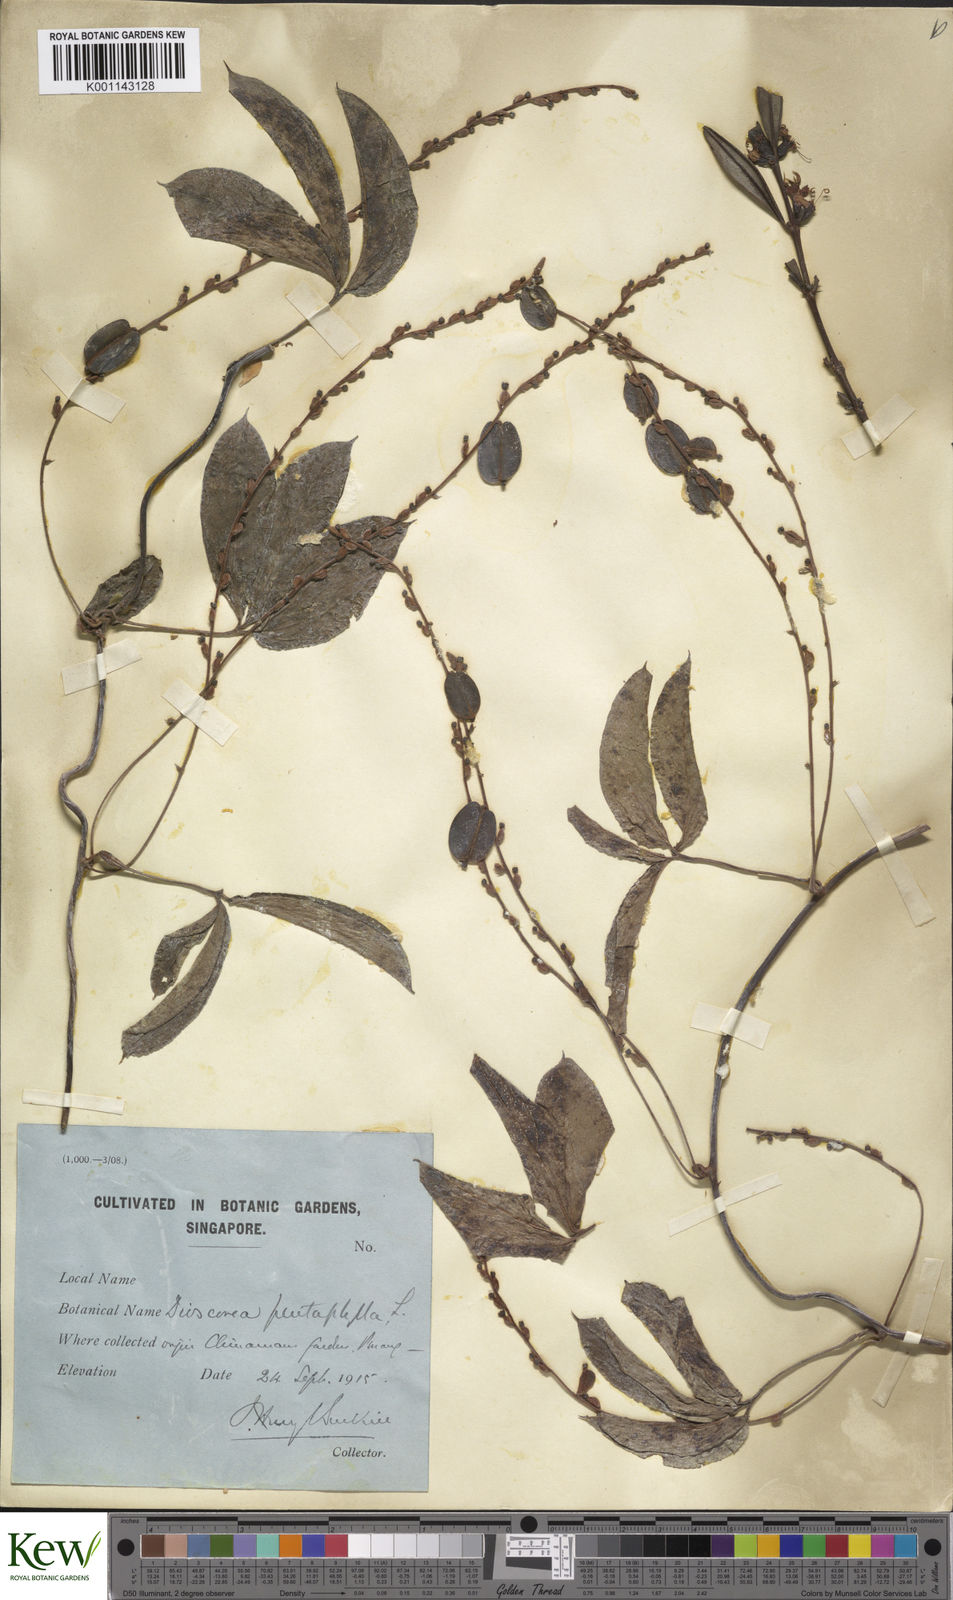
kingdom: Plantae
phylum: Tracheophyta
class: Liliopsida
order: Dioscoreales
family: Dioscoreaceae
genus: Dioscorea
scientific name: Dioscorea pentaphylla
